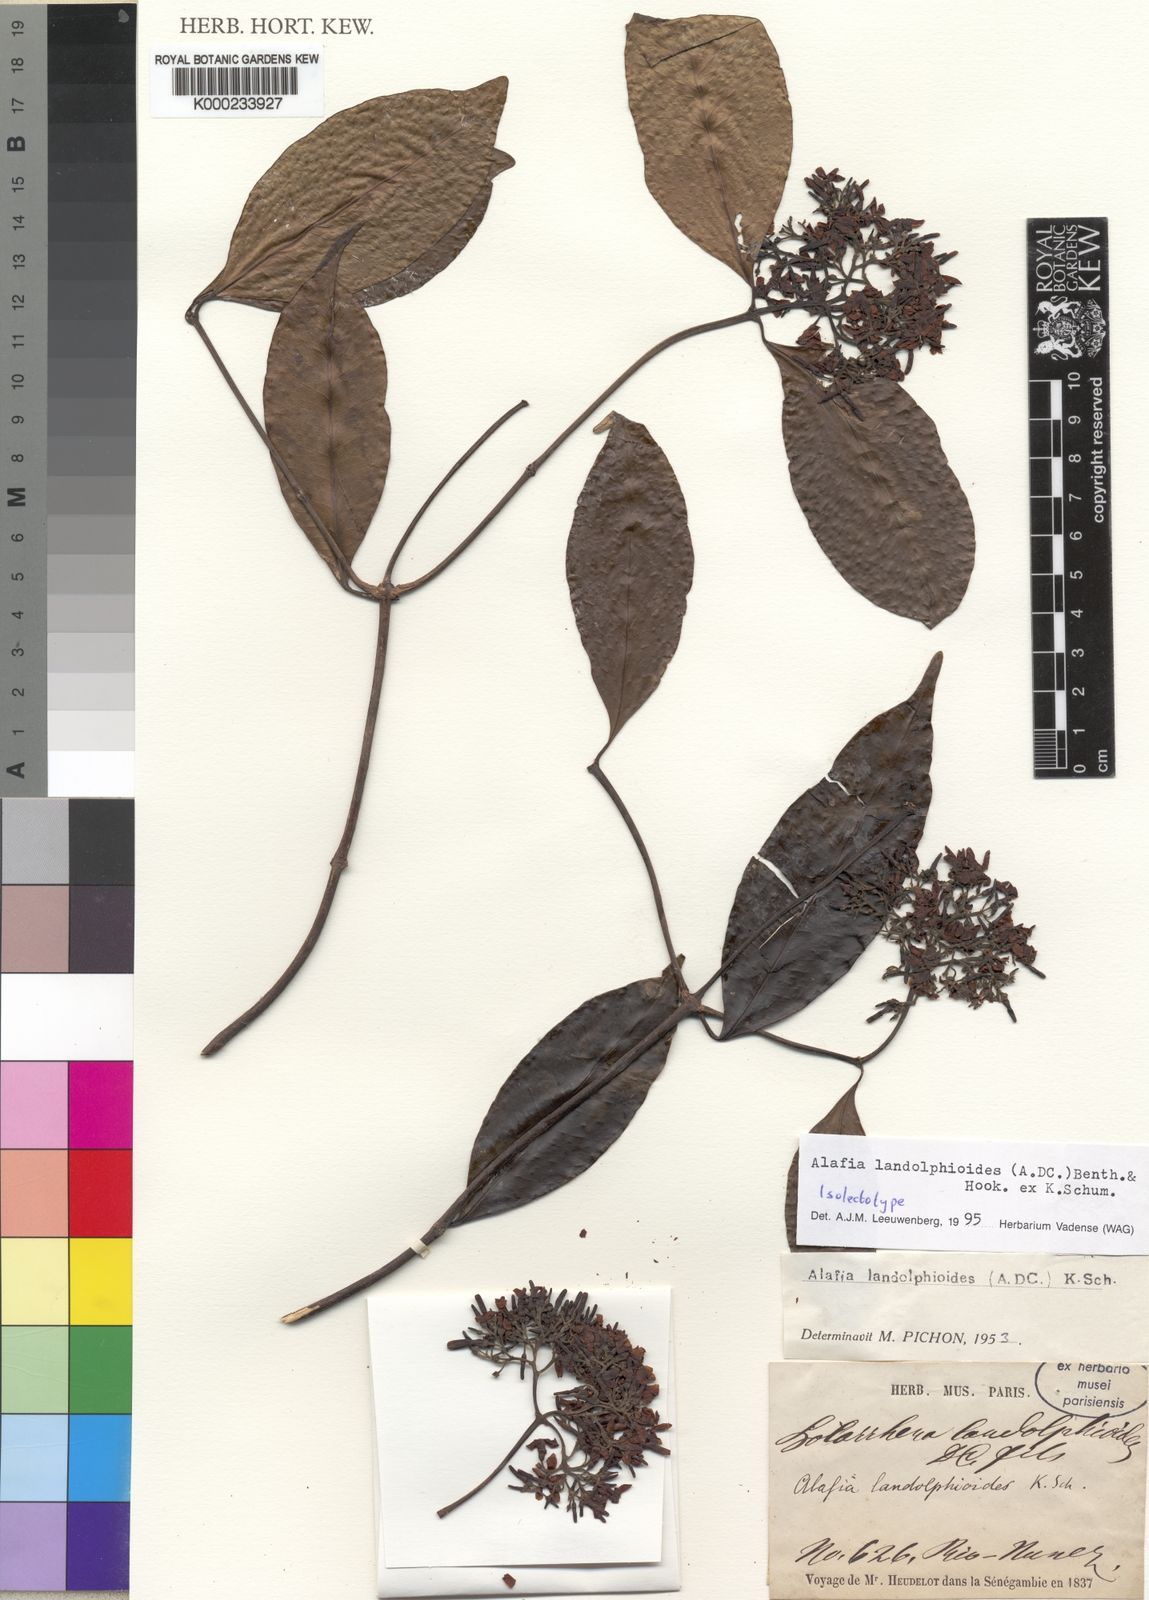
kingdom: Plantae
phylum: Tracheophyta
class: Magnoliopsida
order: Gentianales
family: Apocynaceae
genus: Alafia
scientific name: Alafia scandens
